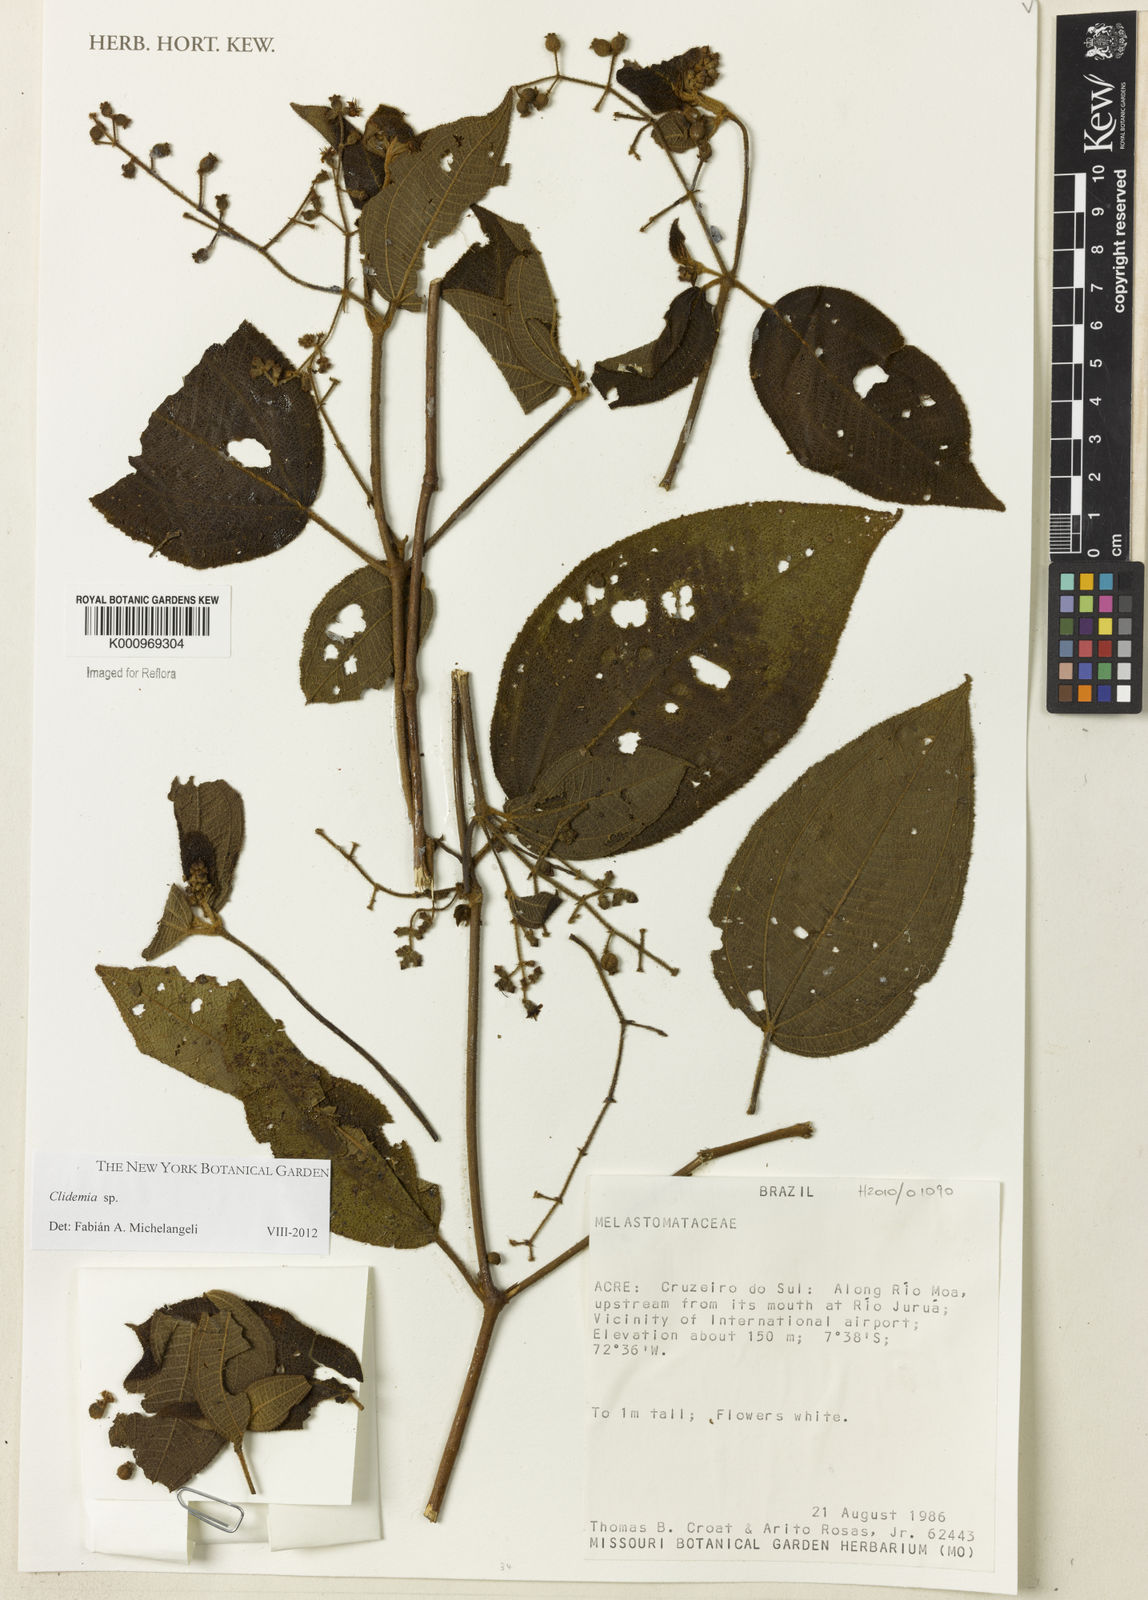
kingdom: Plantae
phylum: Tracheophyta
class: Magnoliopsida
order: Myrtales
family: Melastomataceae
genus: Miconia
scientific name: Miconia
